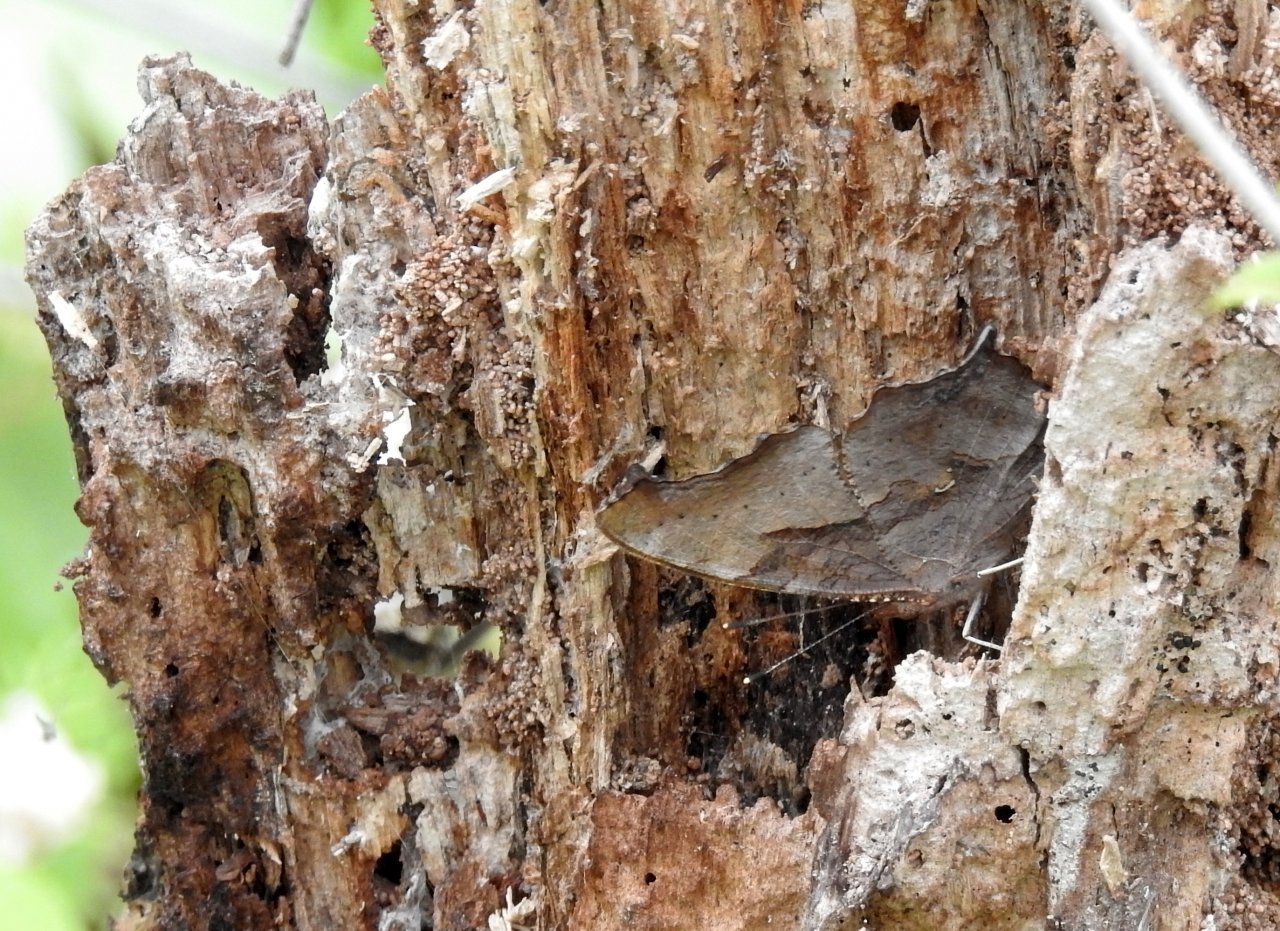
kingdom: Animalia
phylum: Arthropoda
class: Insecta
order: Lepidoptera
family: Nymphalidae
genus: Polygonia
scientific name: Polygonia interrogationis
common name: Question Mark
